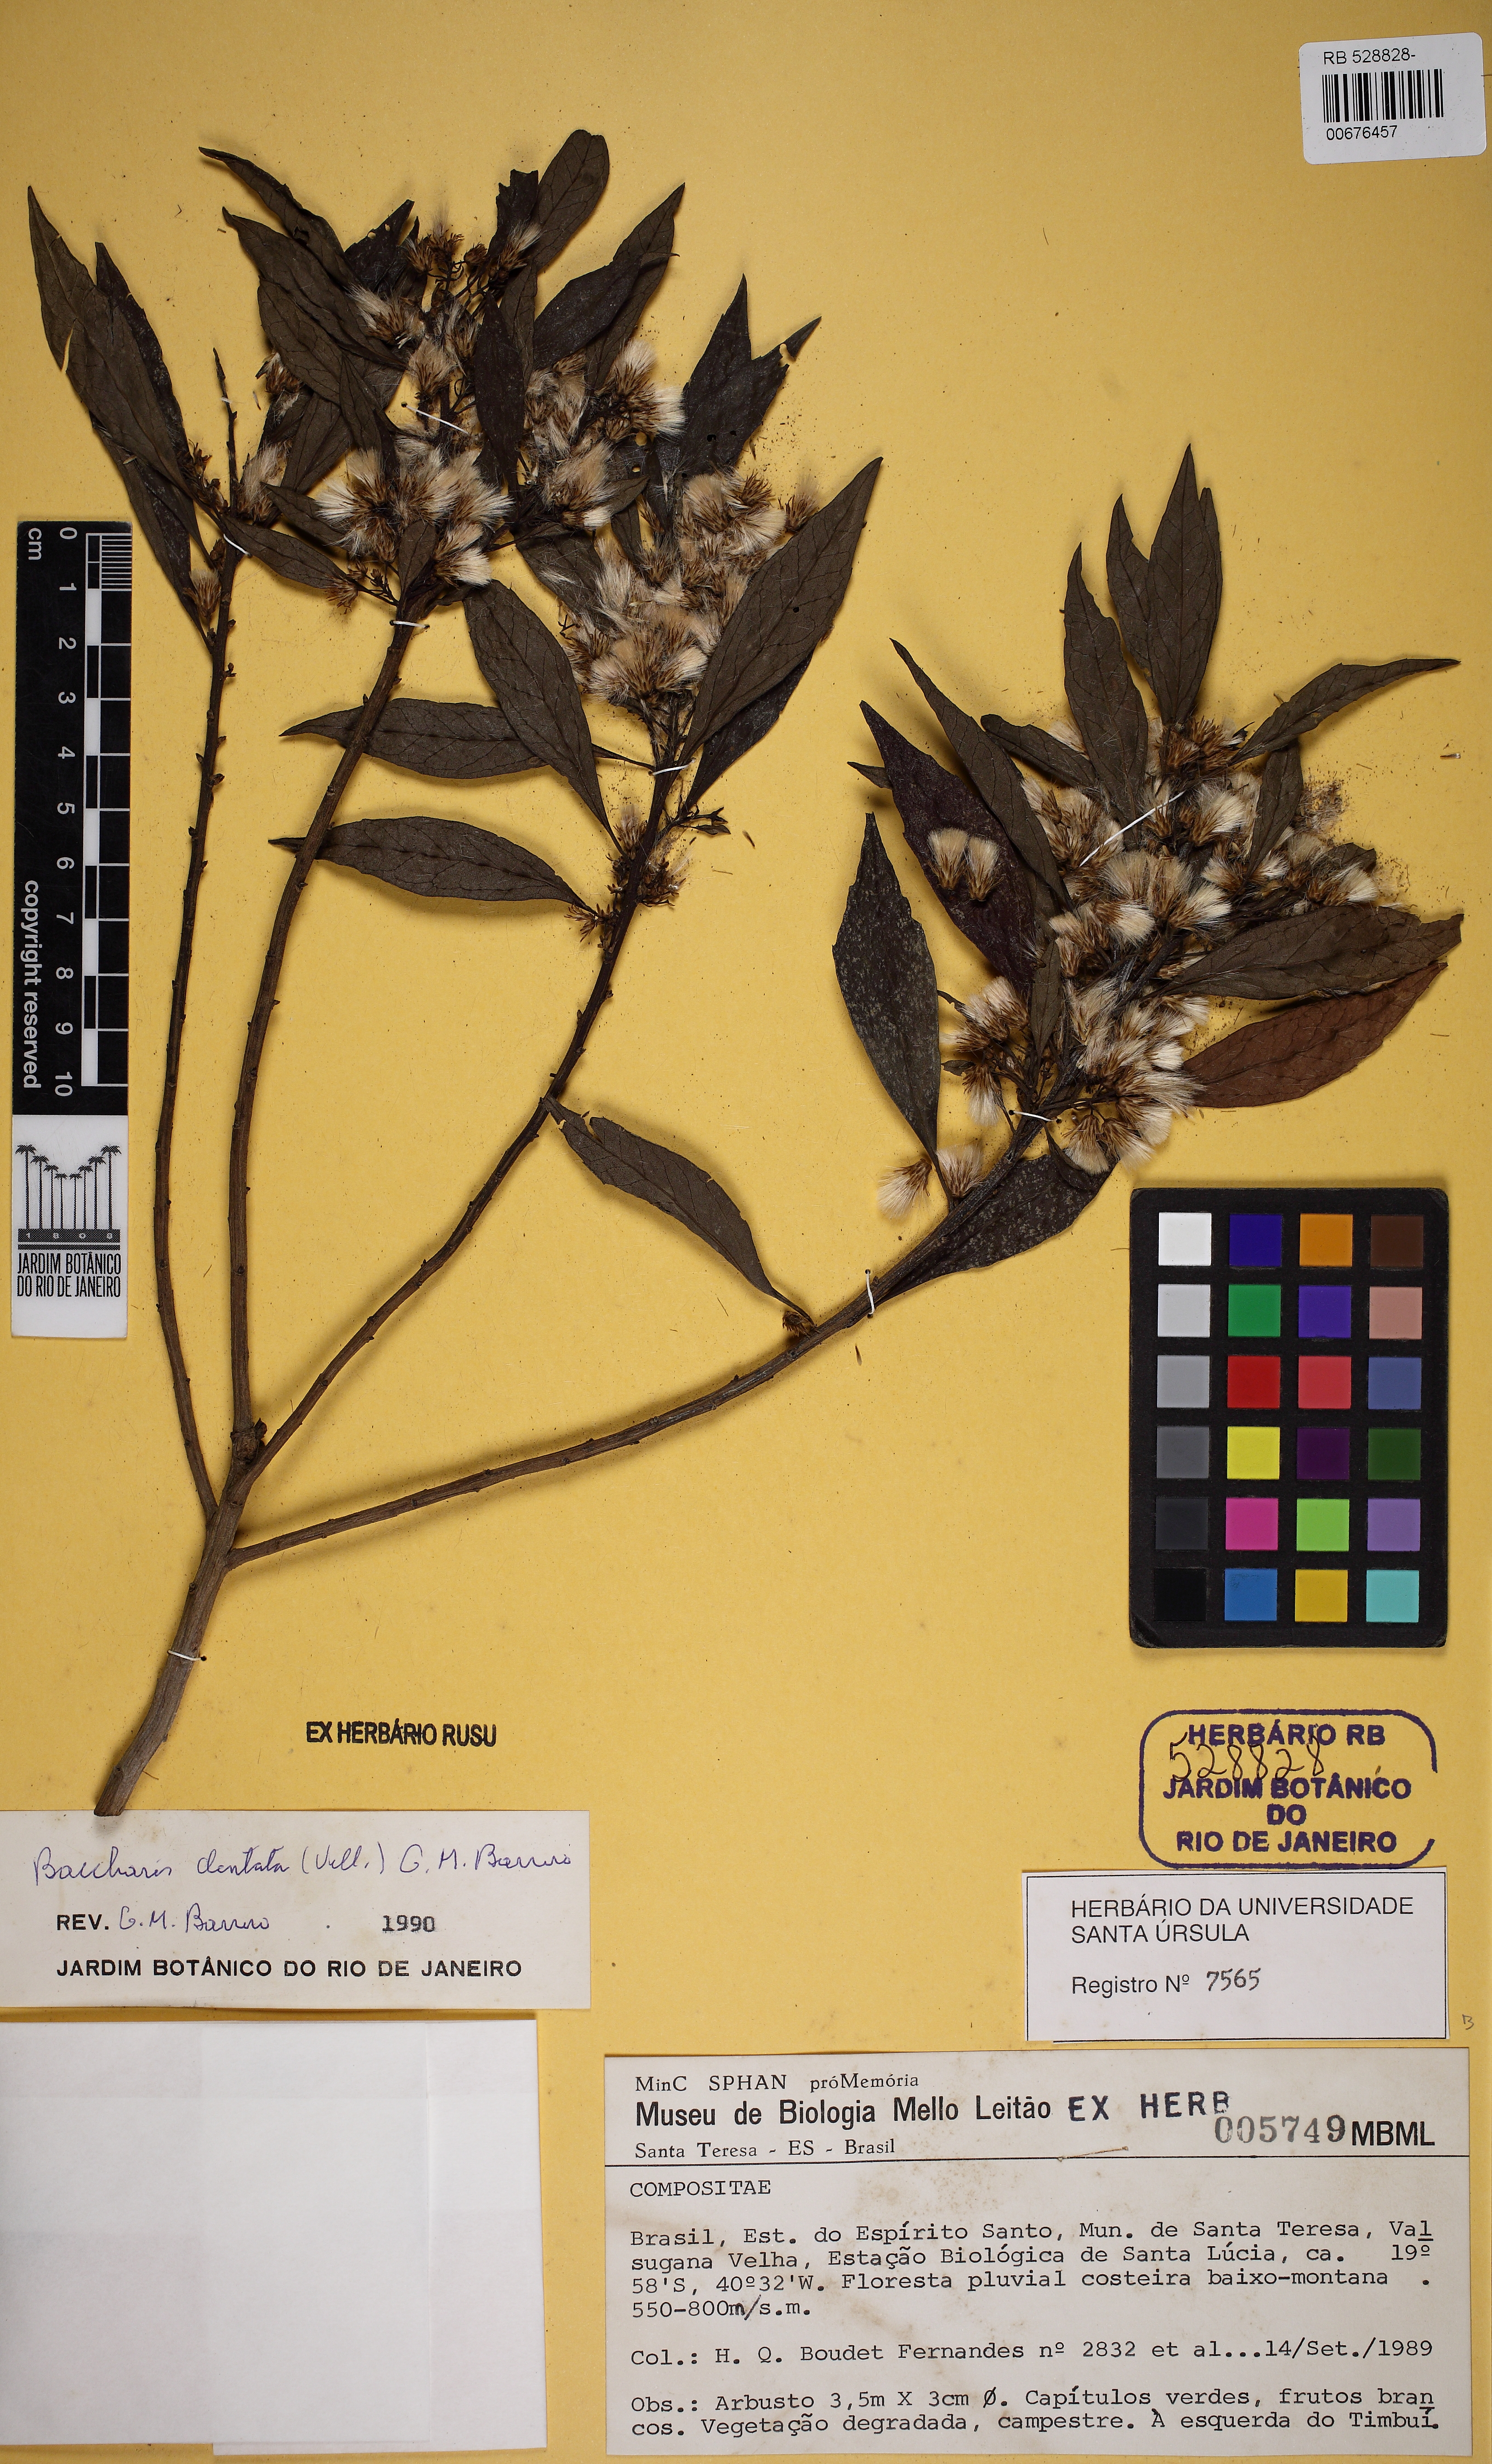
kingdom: Plantae
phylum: Tracheophyta
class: Magnoliopsida
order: Asterales
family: Asteraceae
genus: Baccharis
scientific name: Baccharis dentata
